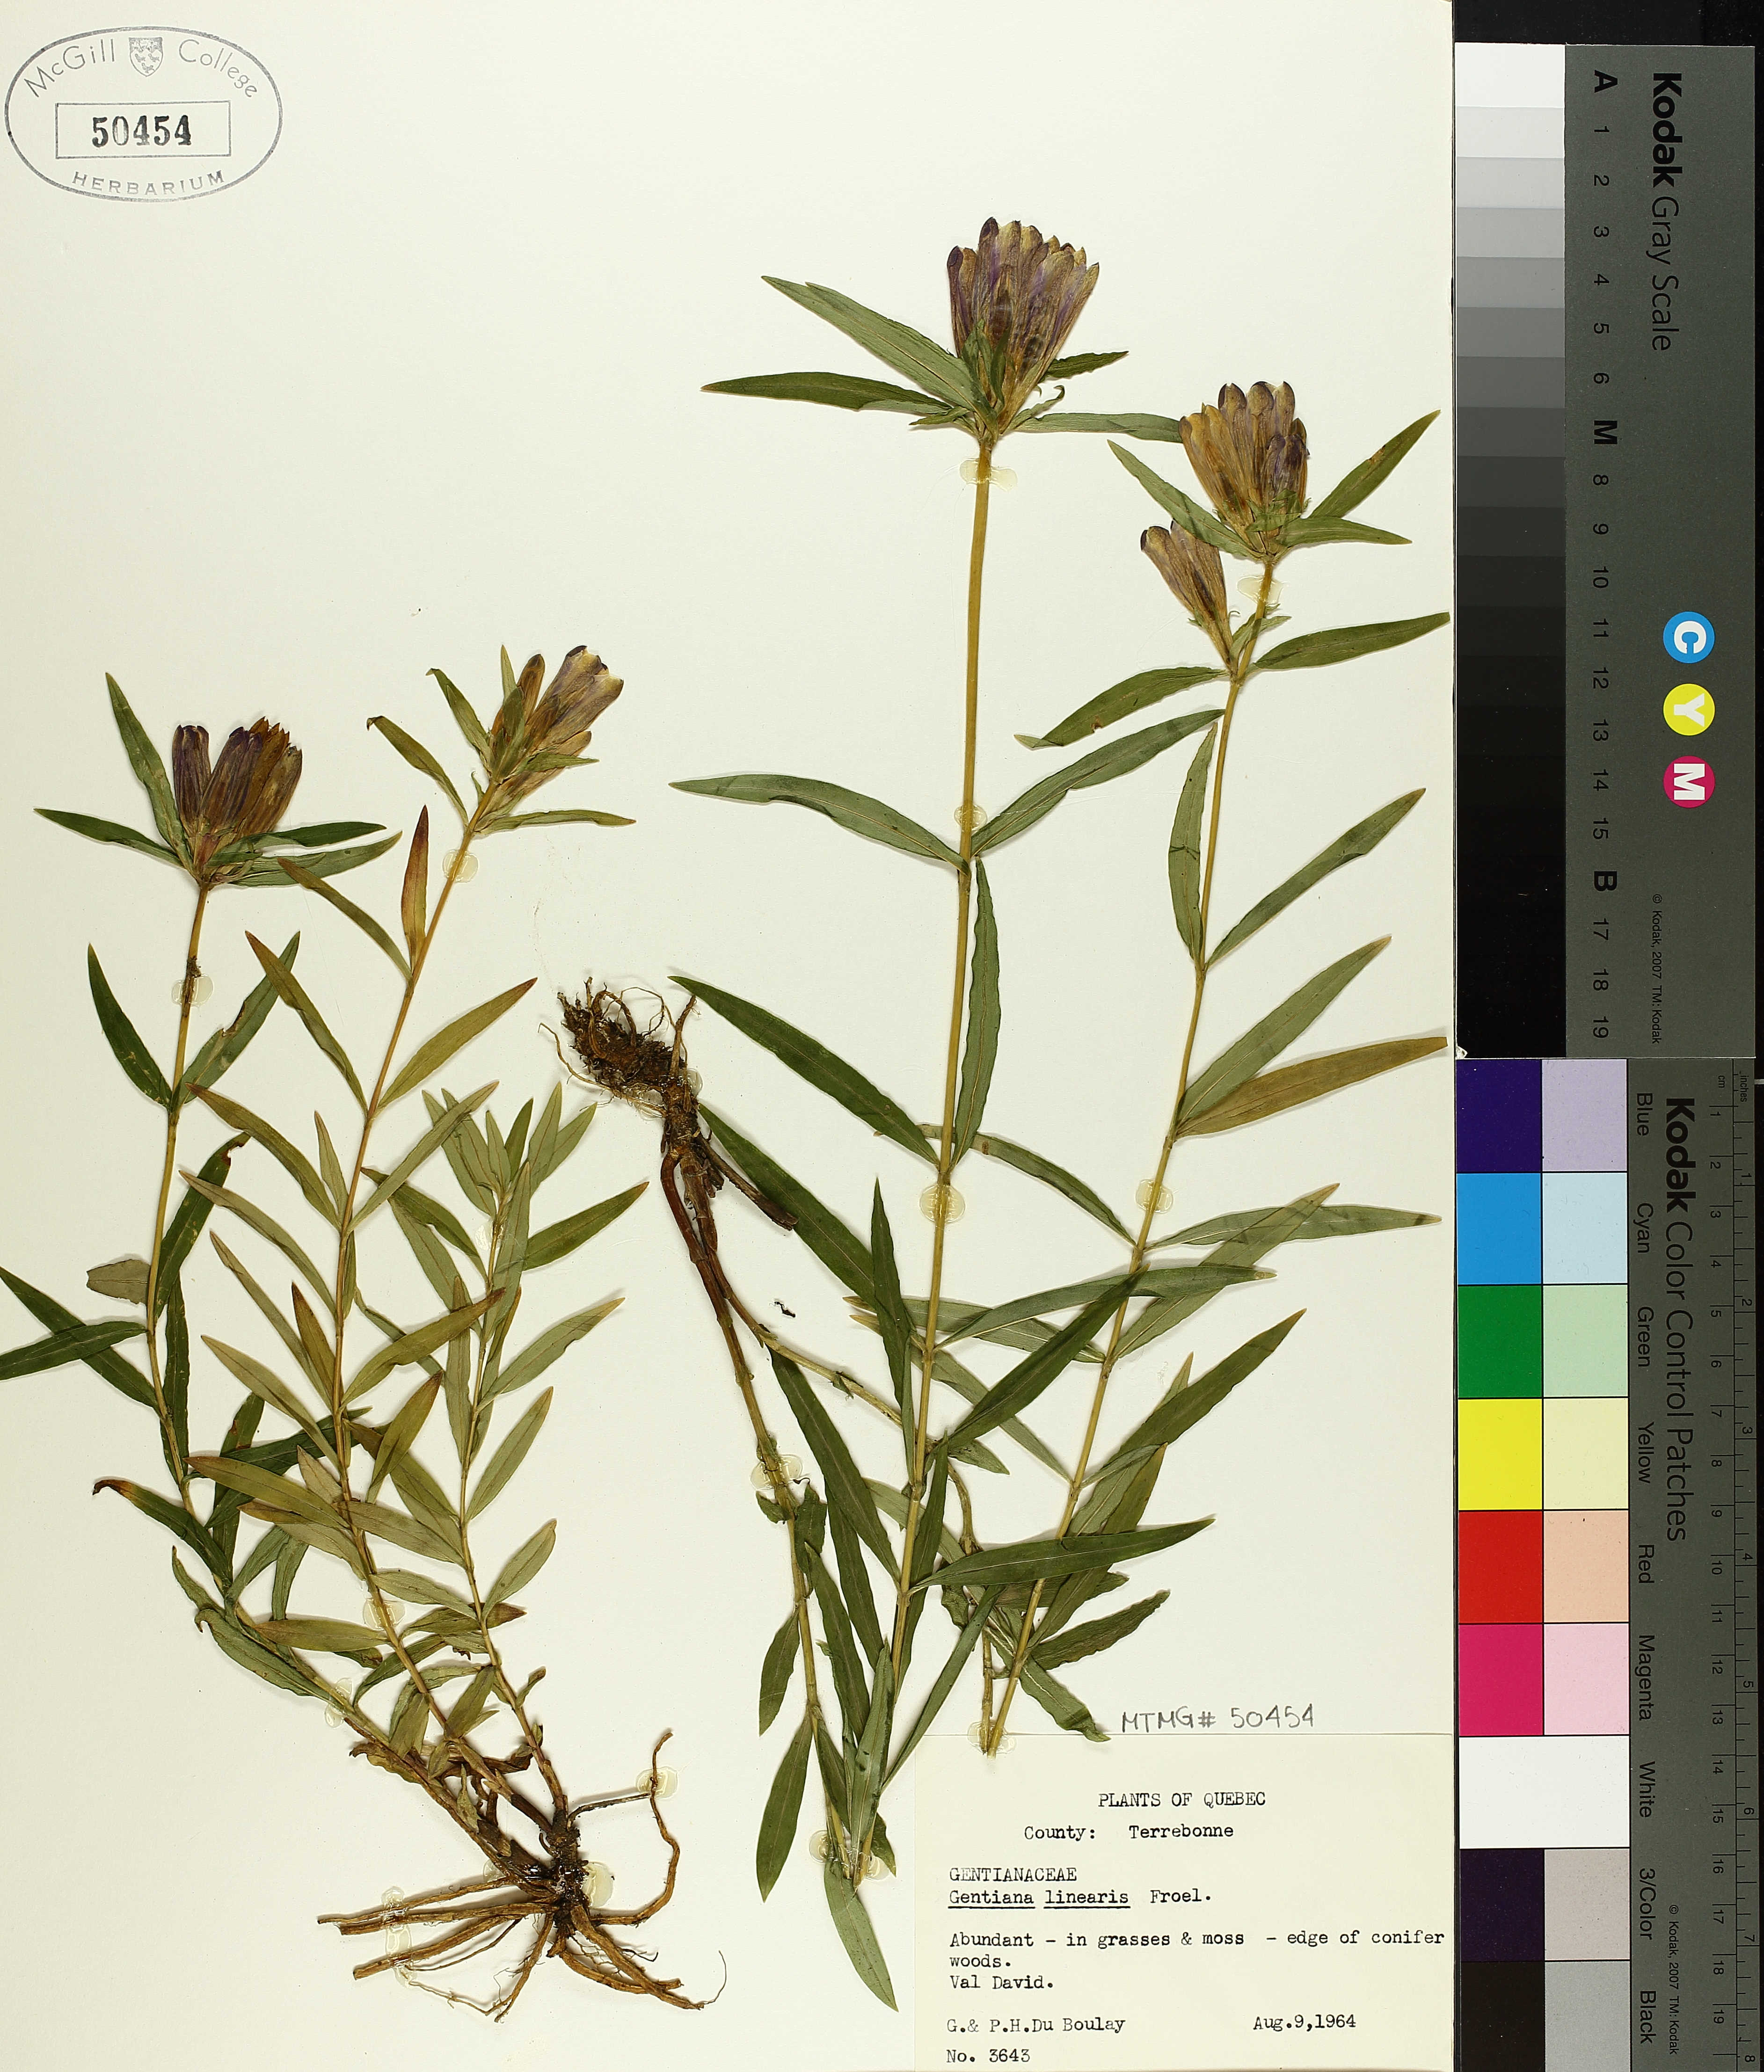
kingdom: Plantae
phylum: Tracheophyta
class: Magnoliopsida
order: Gentianales
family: Gentianaceae
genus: Gentiana
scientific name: Gentiana linearis
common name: Bastard gentian
